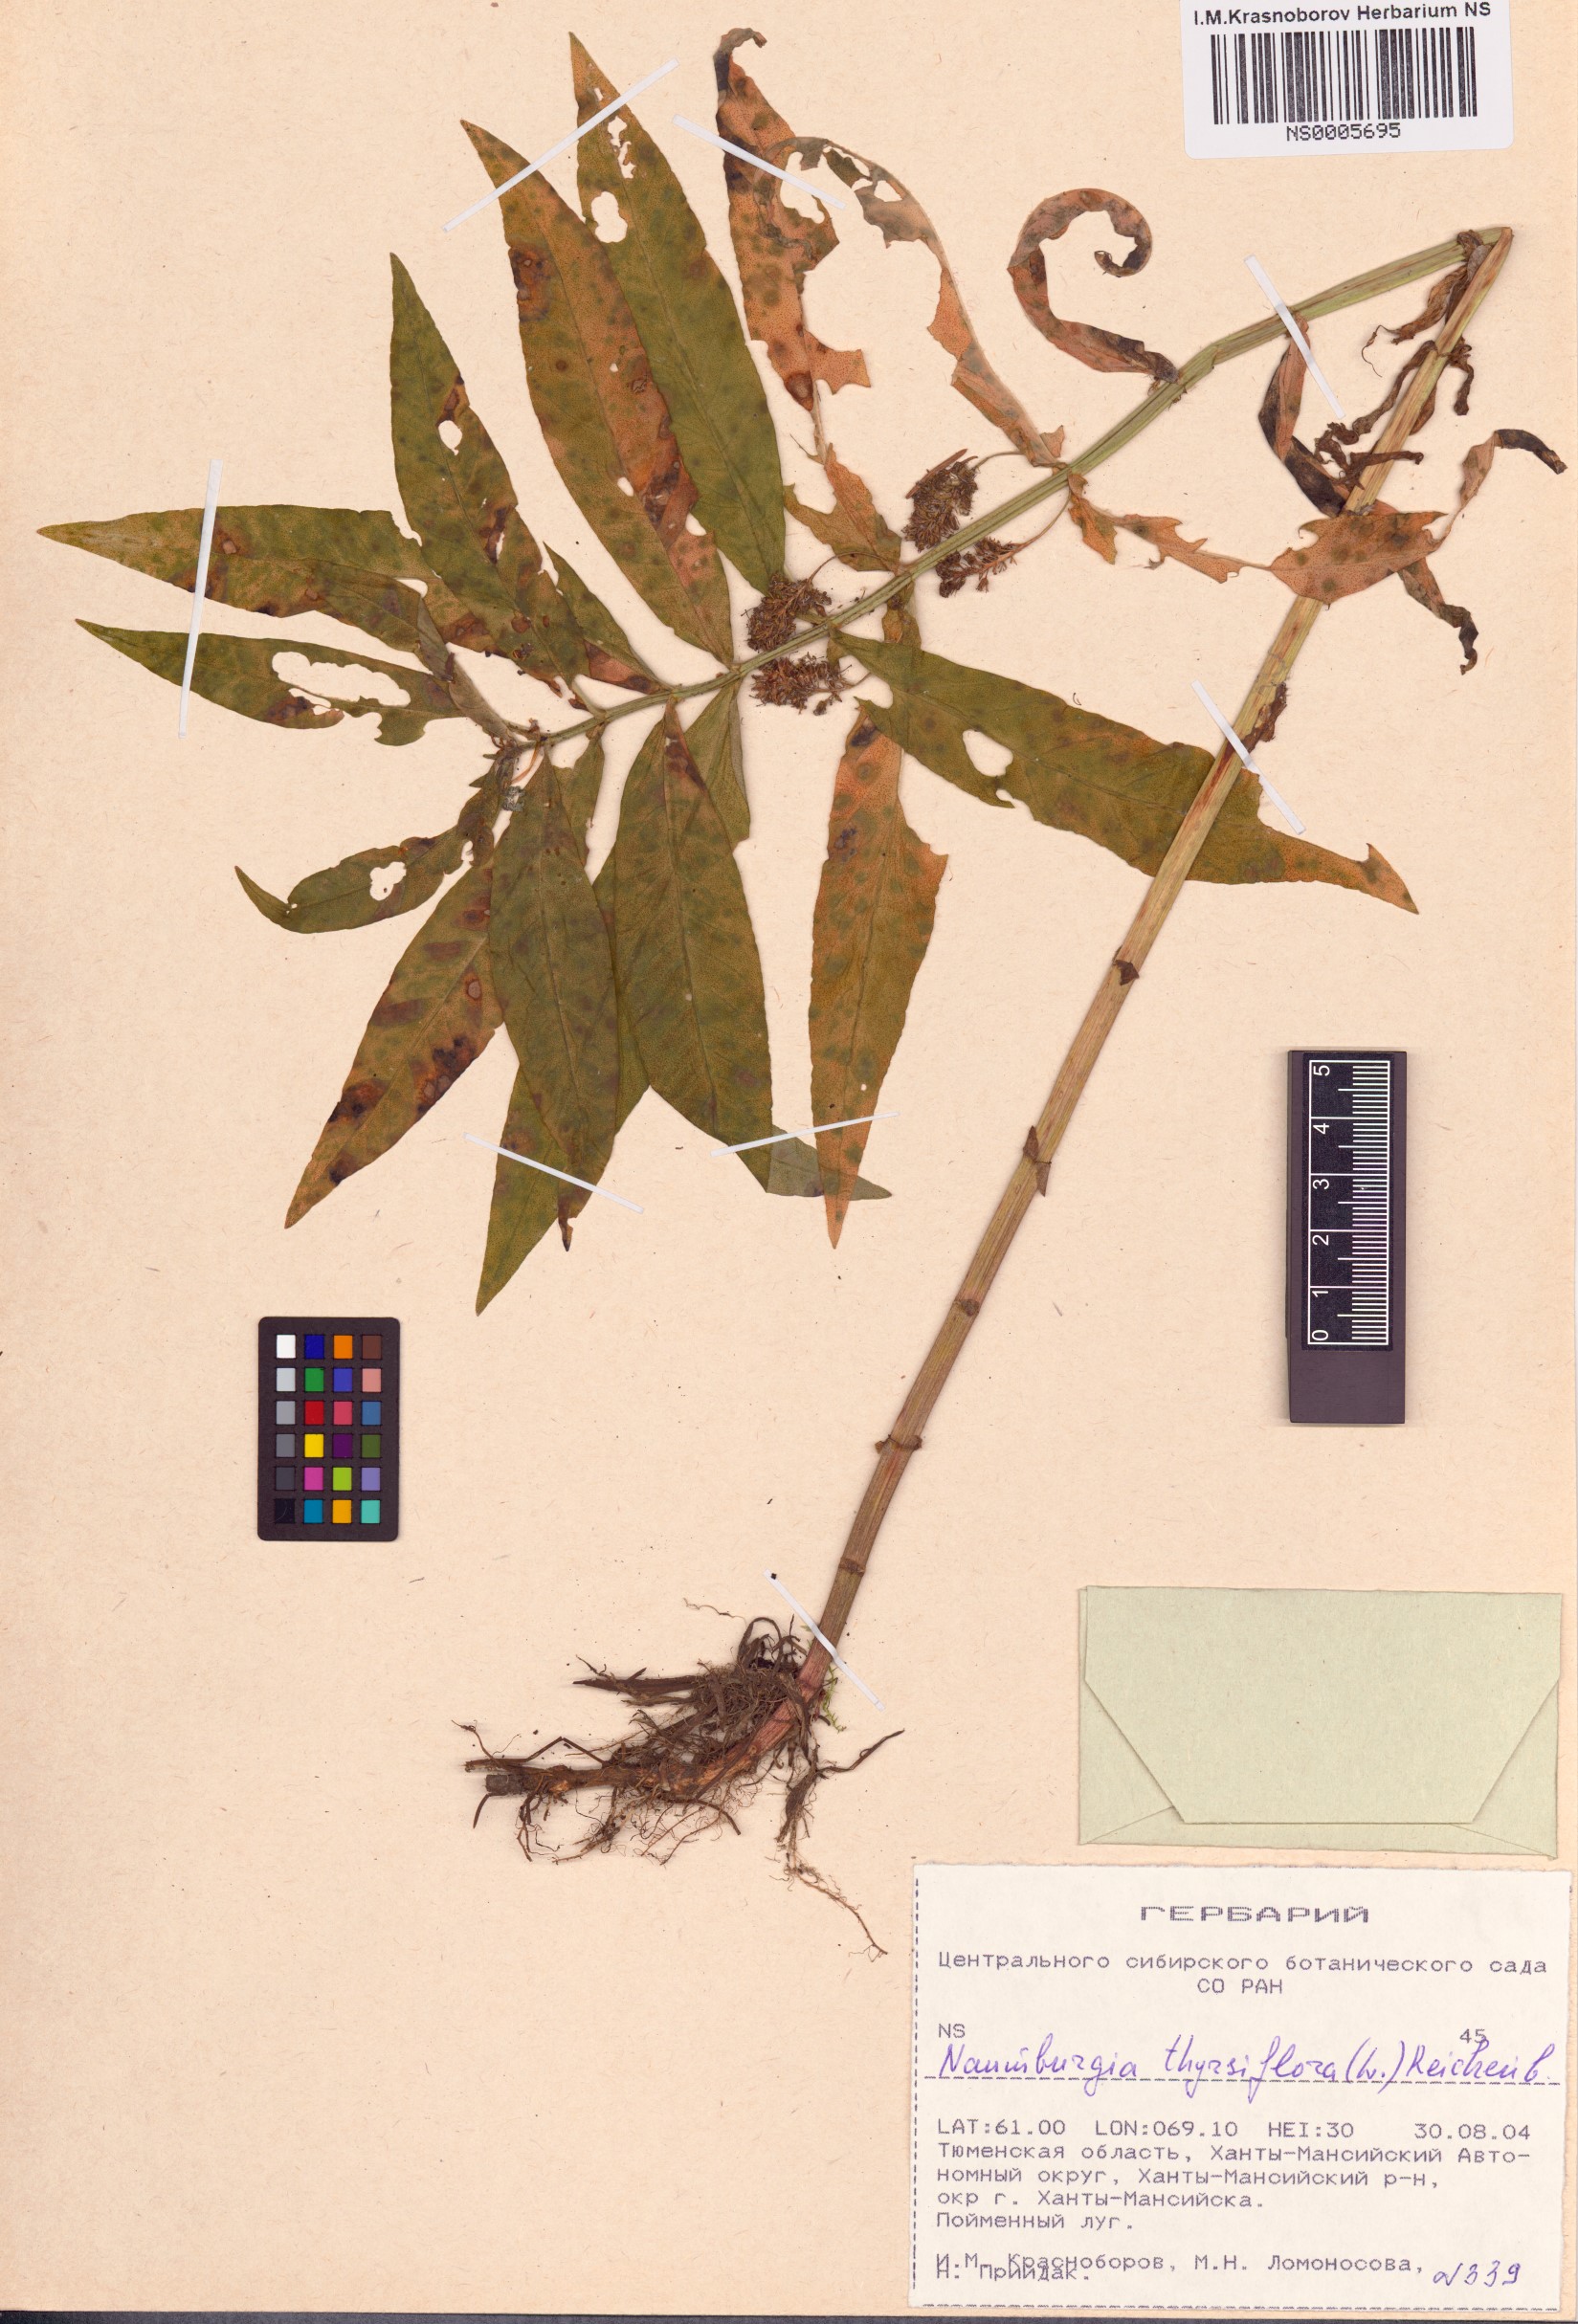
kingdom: Plantae
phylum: Tracheophyta
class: Magnoliopsida
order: Ericales
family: Primulaceae
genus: Lysimachia
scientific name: Lysimachia thyrsiflora
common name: Tufted loosestrife
